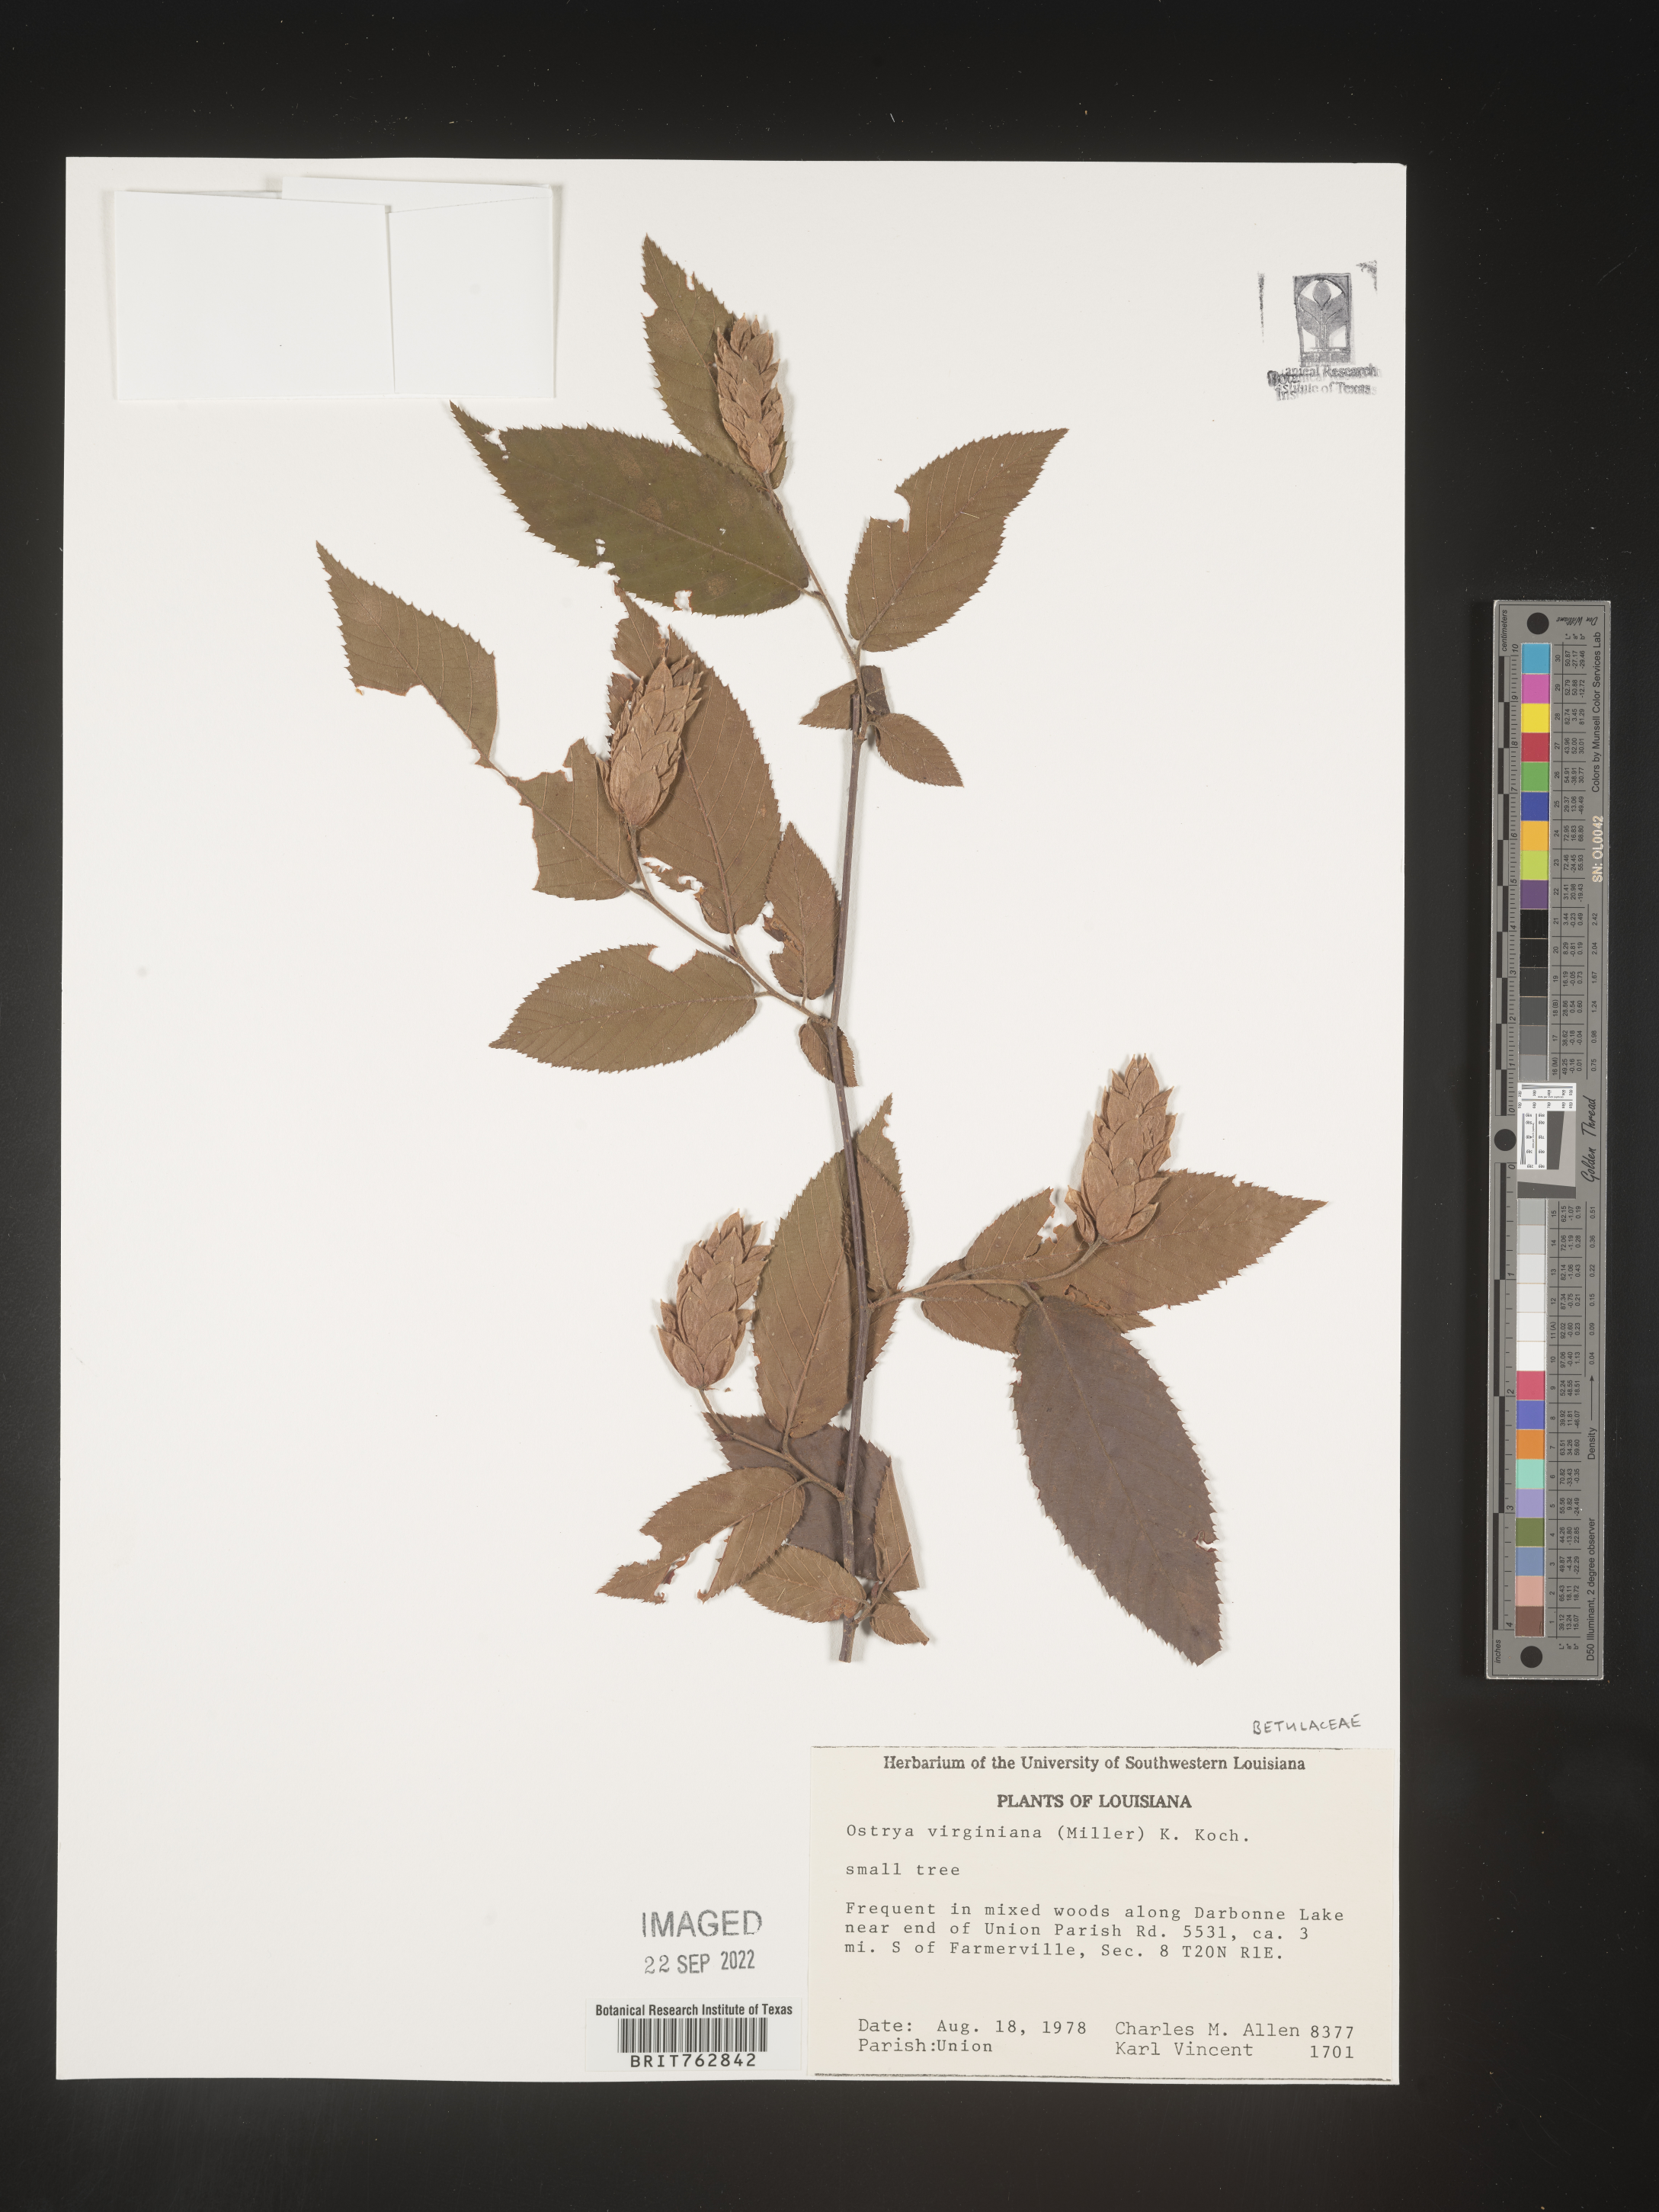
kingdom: Plantae
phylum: Tracheophyta
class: Magnoliopsida
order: Fagales
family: Betulaceae
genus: Ostrya
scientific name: Ostrya virginiana
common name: Ironwood
